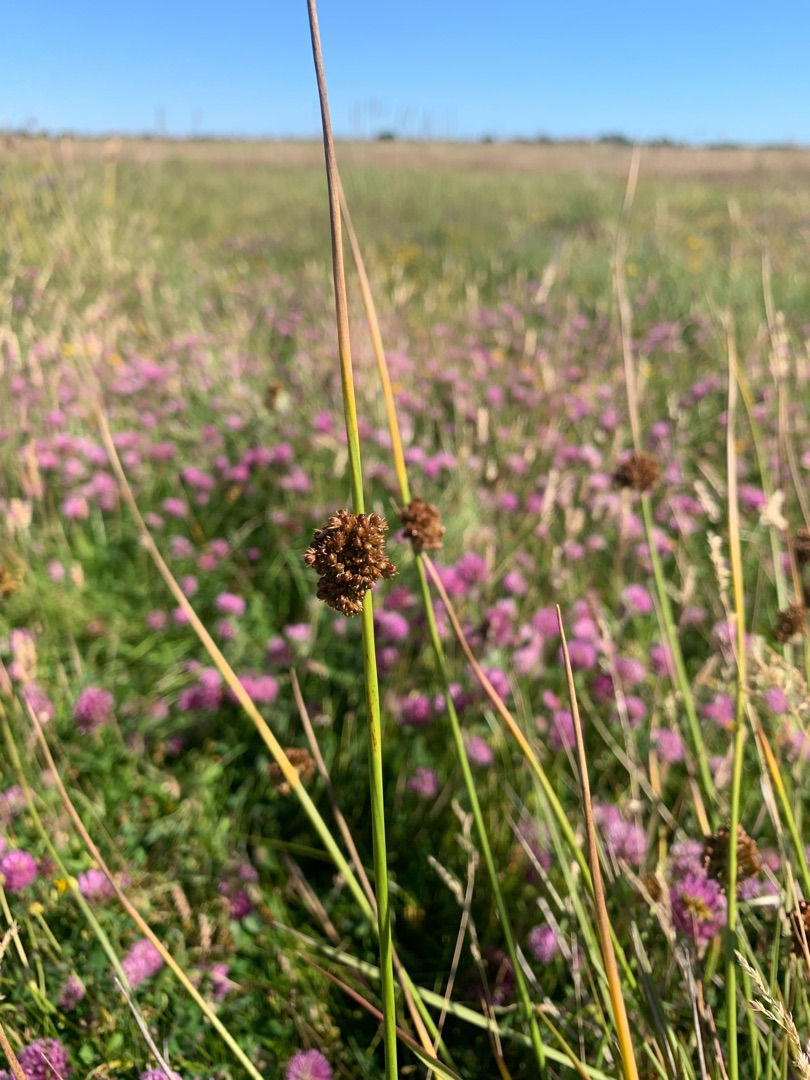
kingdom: Plantae
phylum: Tracheophyta
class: Liliopsida
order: Poales
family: Juncaceae
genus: Juncus
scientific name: Juncus effusus
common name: Lyse-siv
